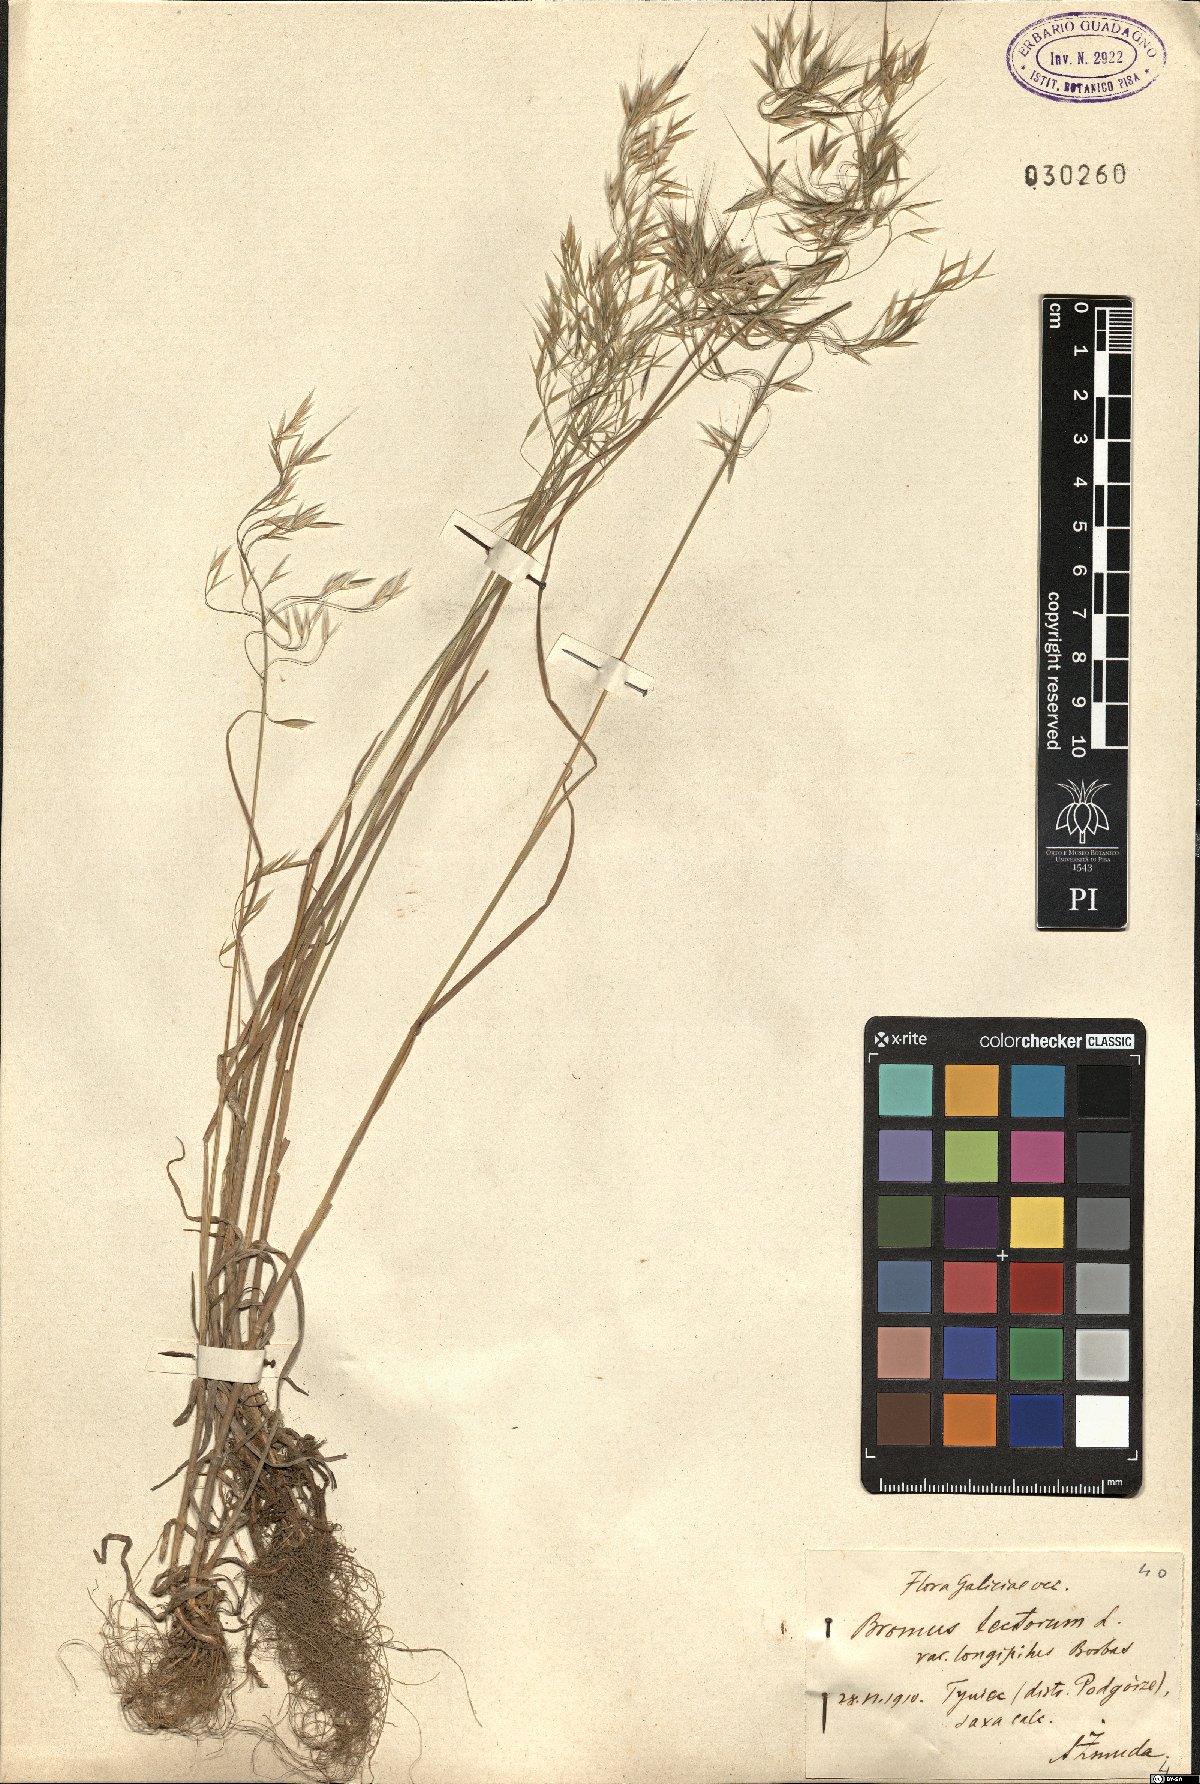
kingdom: Plantae
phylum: Tracheophyta
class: Liliopsida
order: Poales
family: Poaceae
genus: Bromus
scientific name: Bromus tectorum
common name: Cheatgrass
